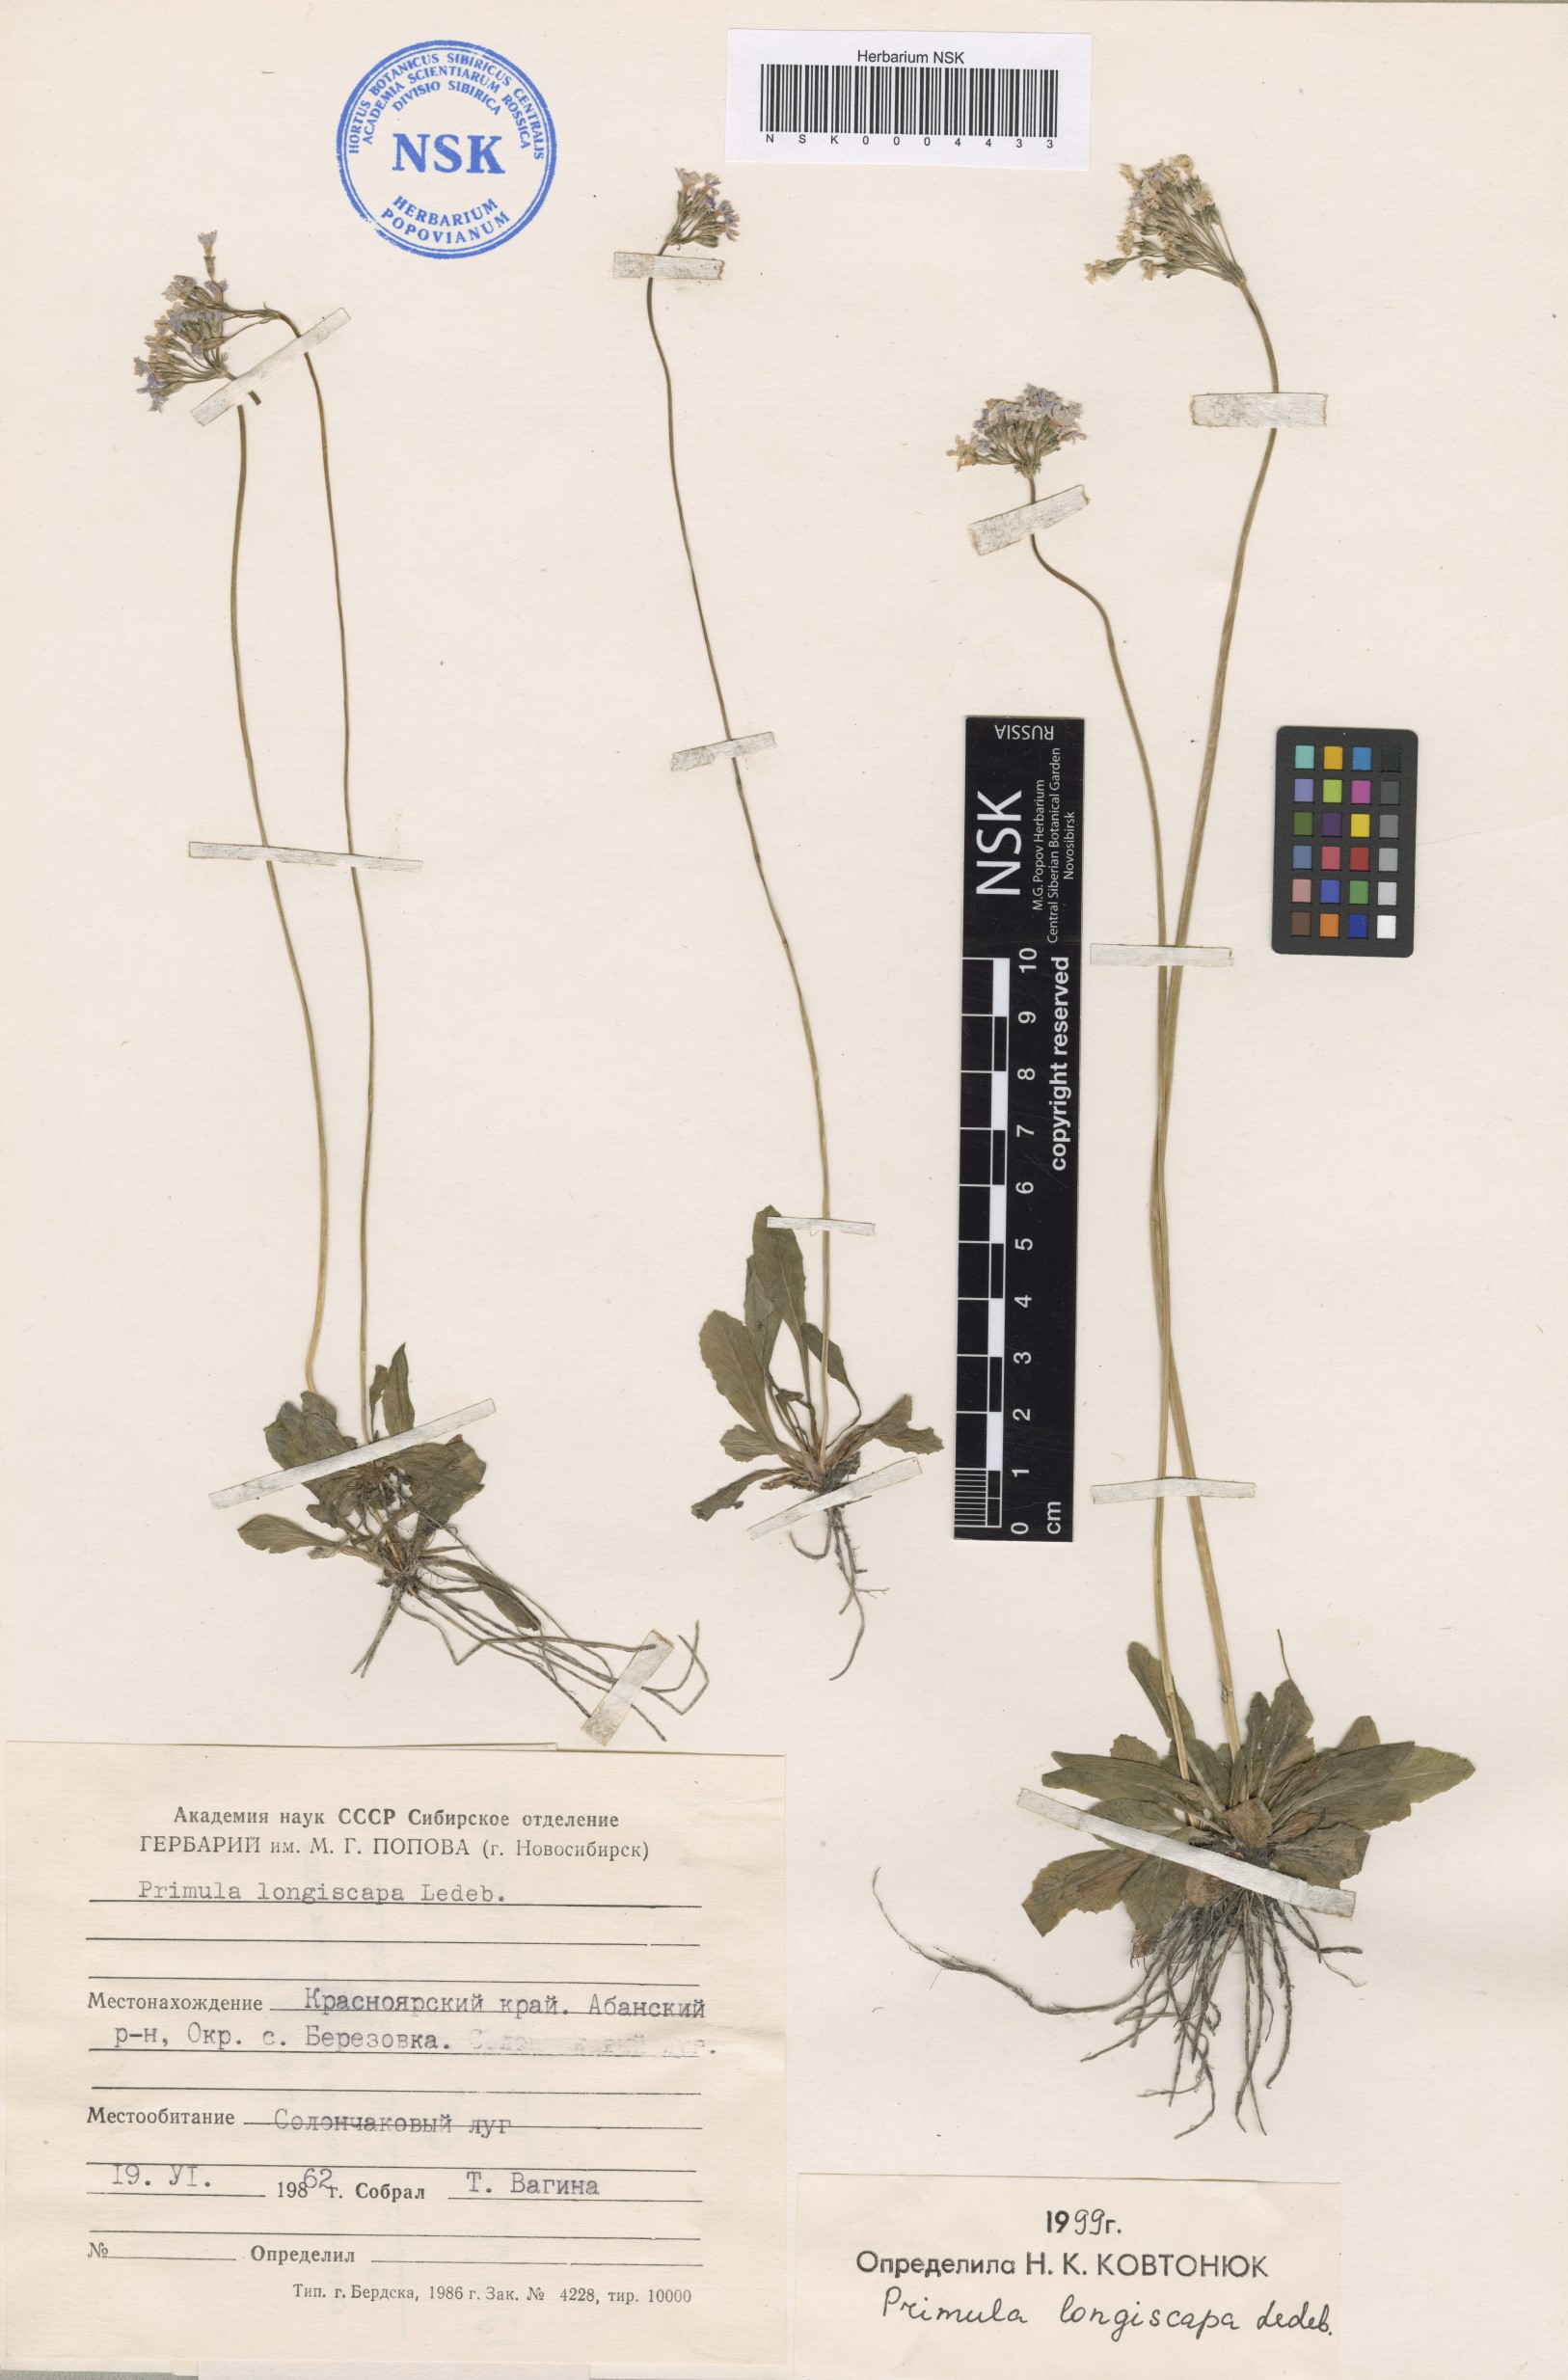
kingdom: Plantae
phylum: Tracheophyta
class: Magnoliopsida
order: Ericales
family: Primulaceae
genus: Primula
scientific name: Primula longiscapa
